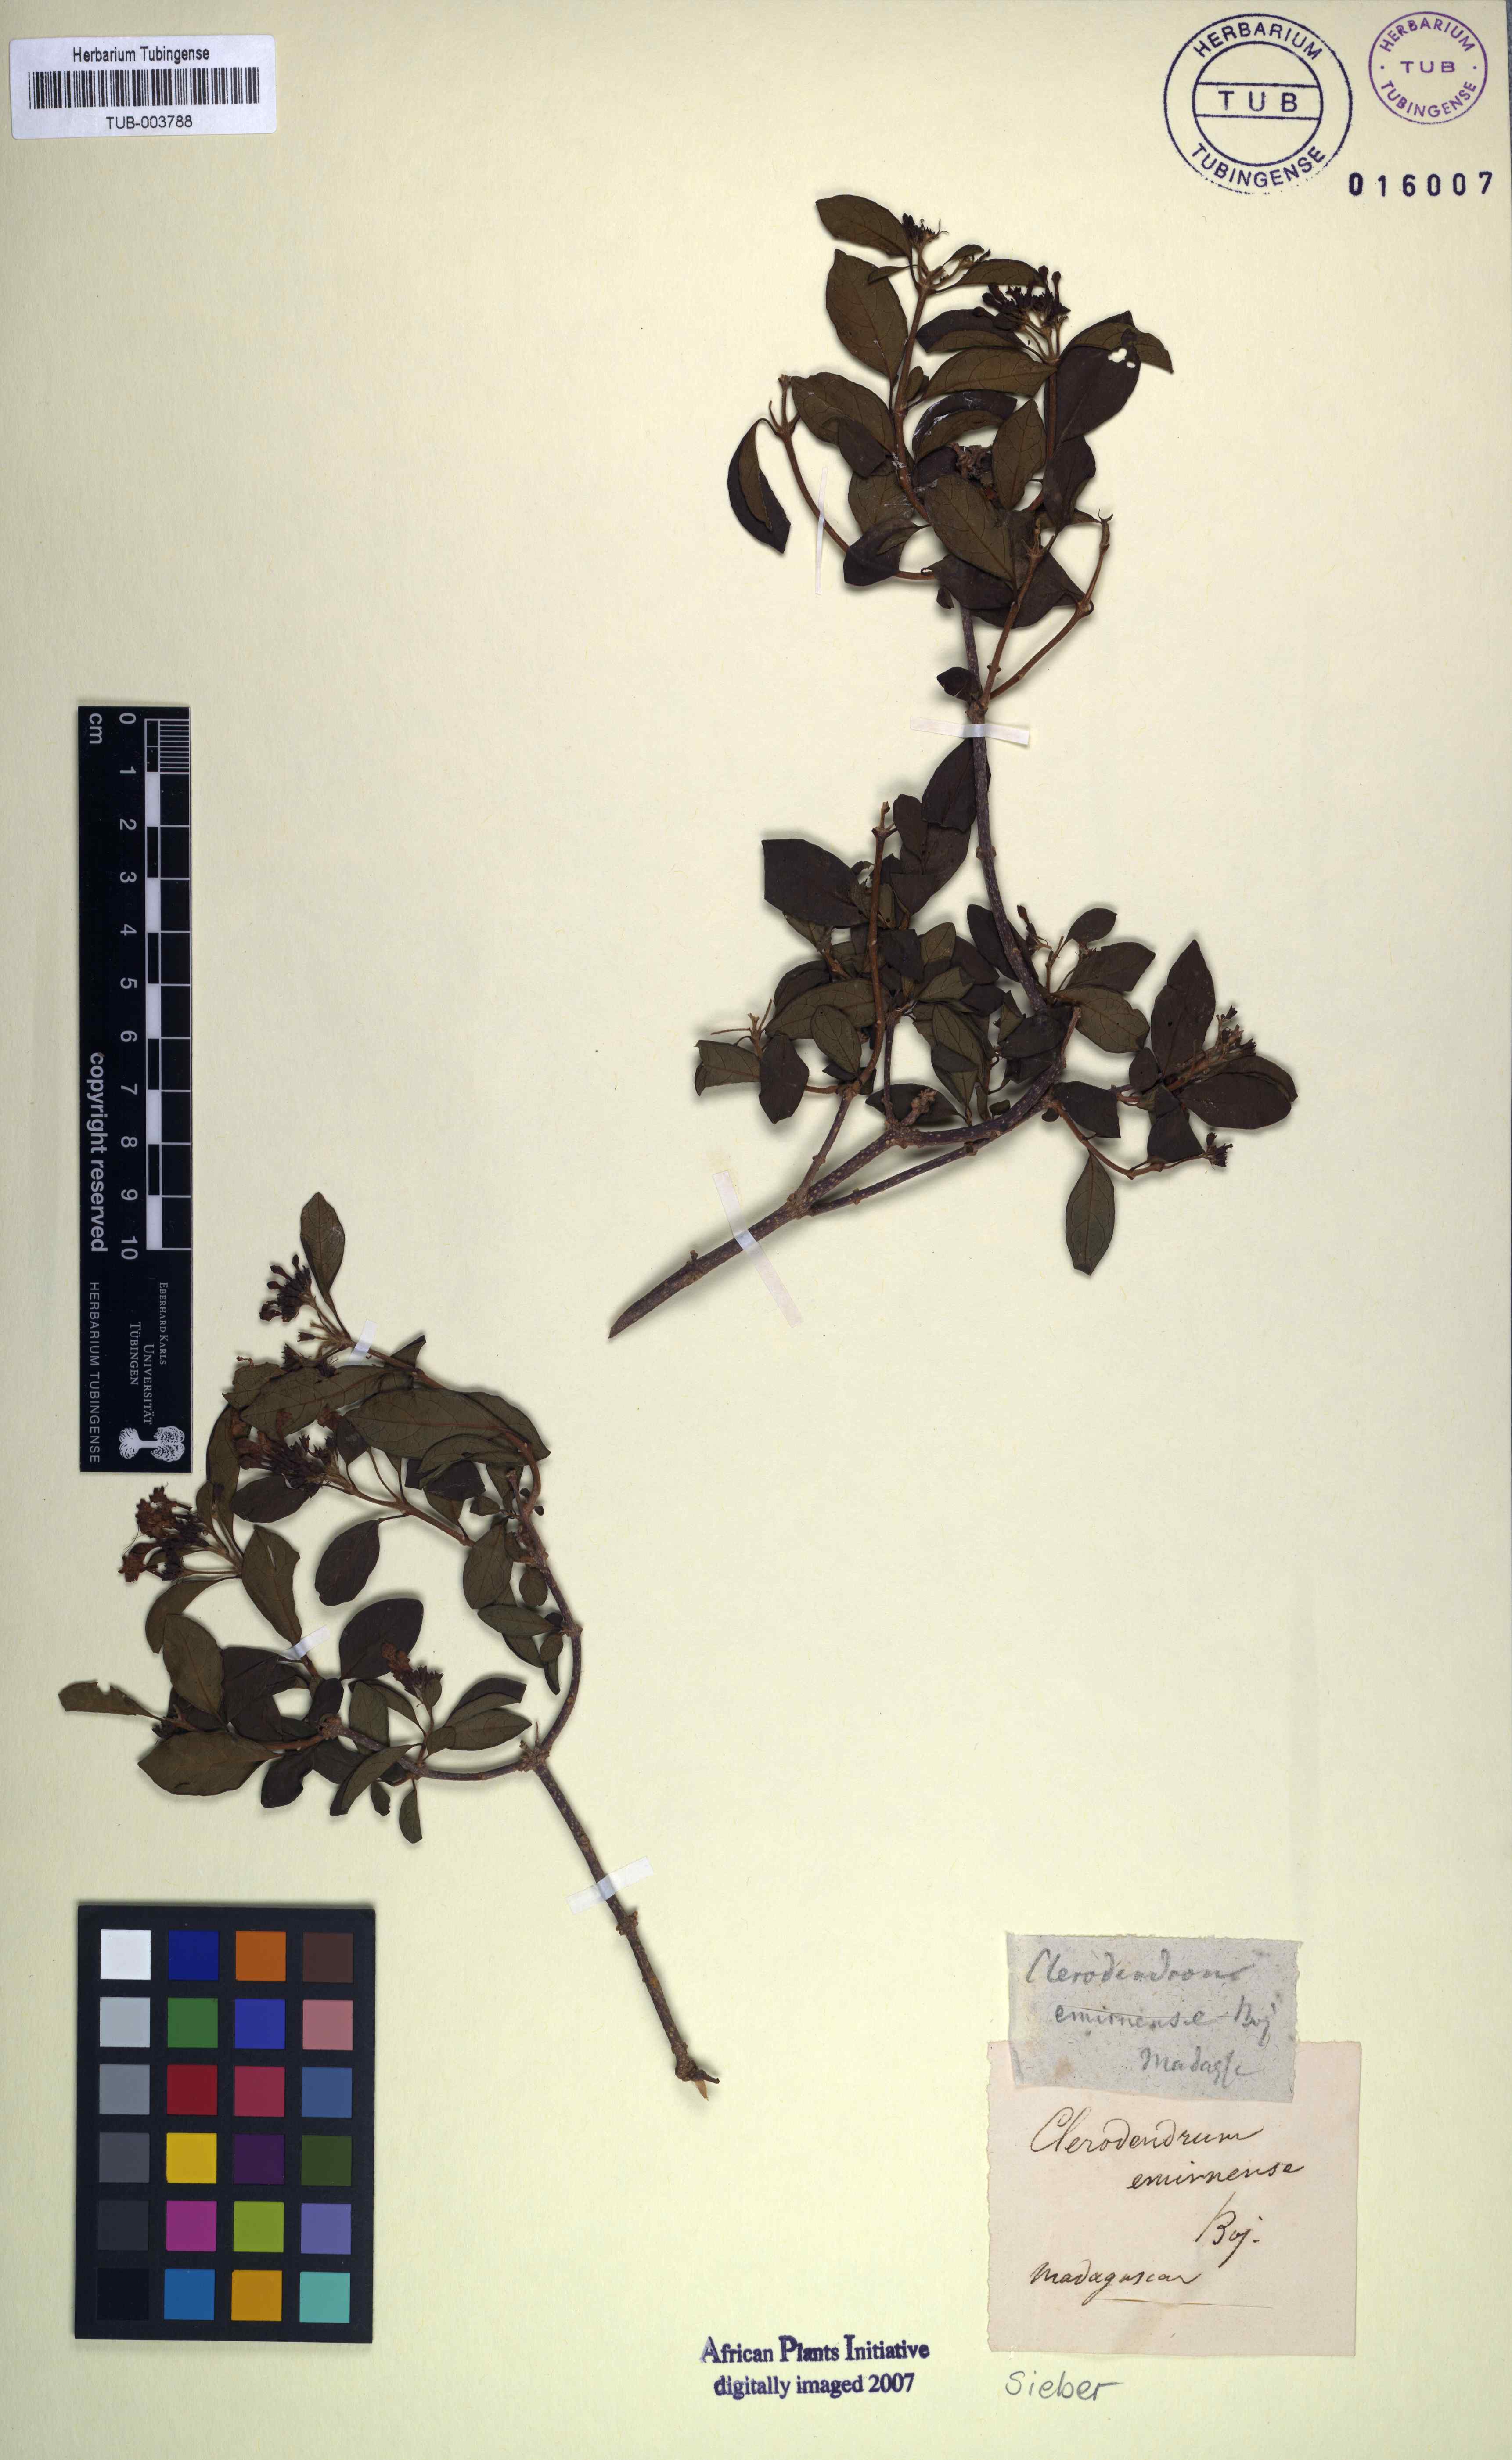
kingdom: Plantae
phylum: Tracheophyta
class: Magnoliopsida
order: Lamiales
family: Lamiaceae
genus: Clerodendrum
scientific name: Clerodendrum emirnense
